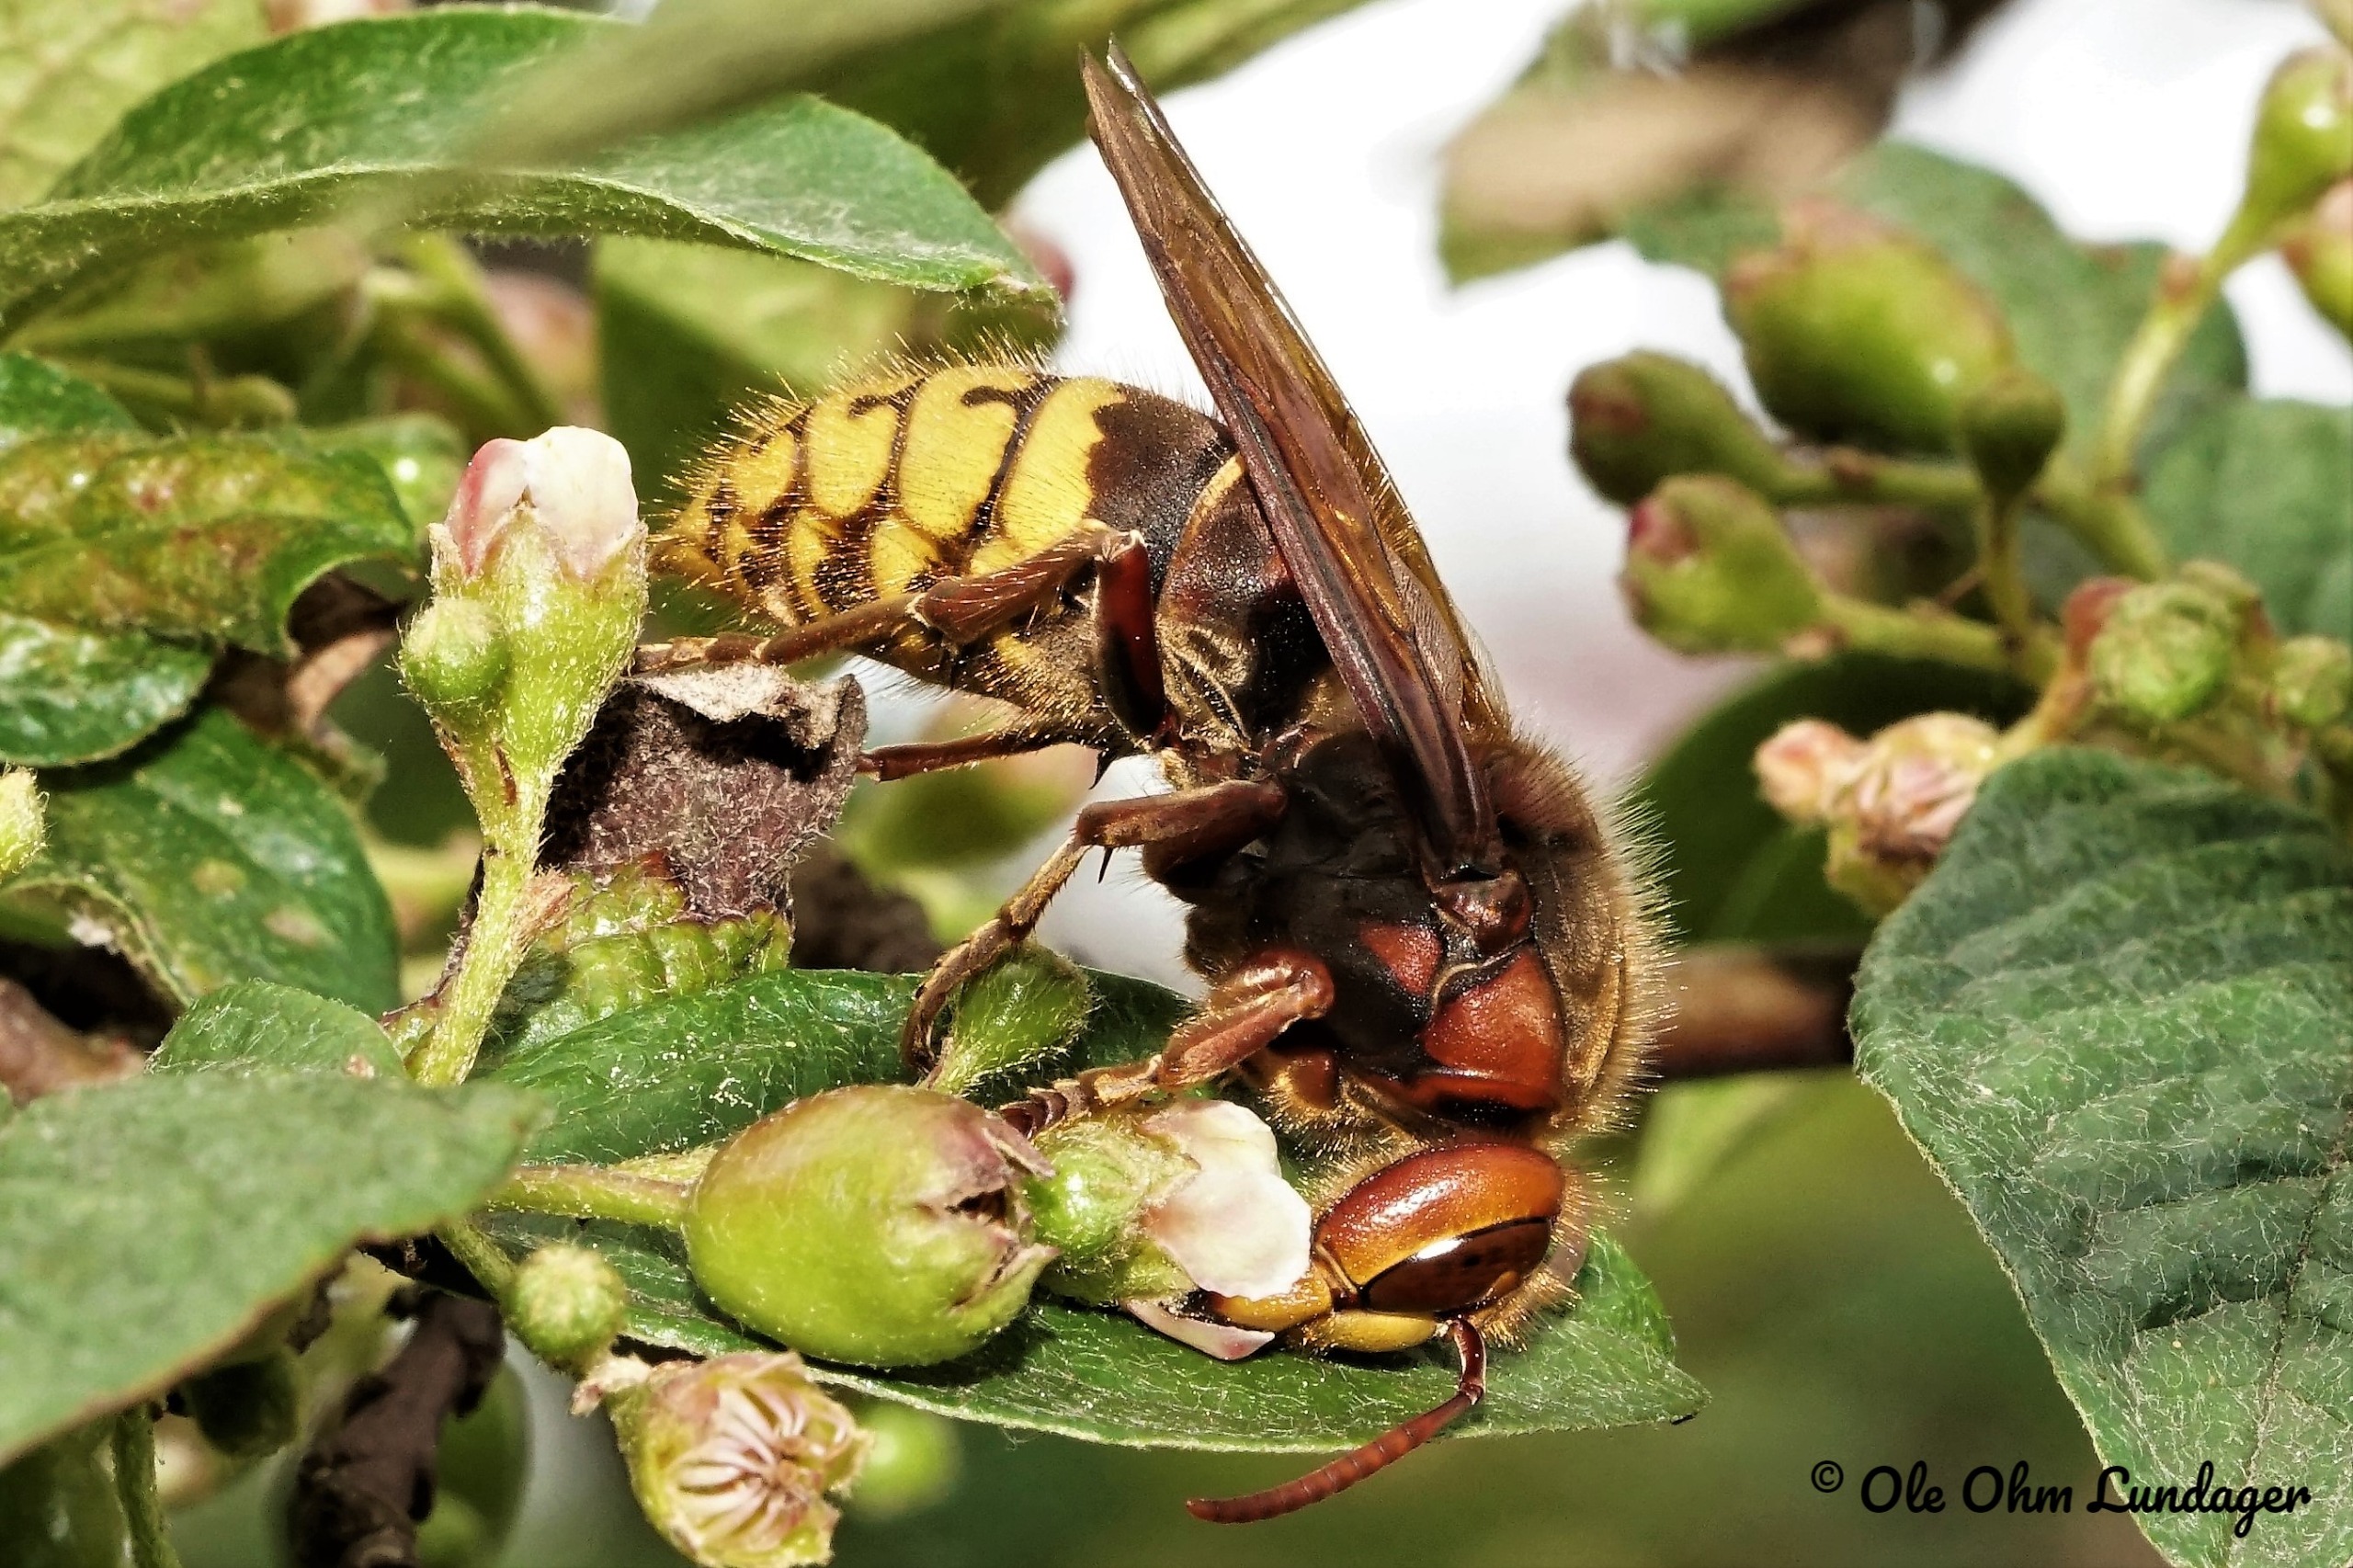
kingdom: Animalia
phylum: Arthropoda
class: Insecta
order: Hymenoptera
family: Vespidae
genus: Vespa
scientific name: Vespa crabro
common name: Stor gedehams
